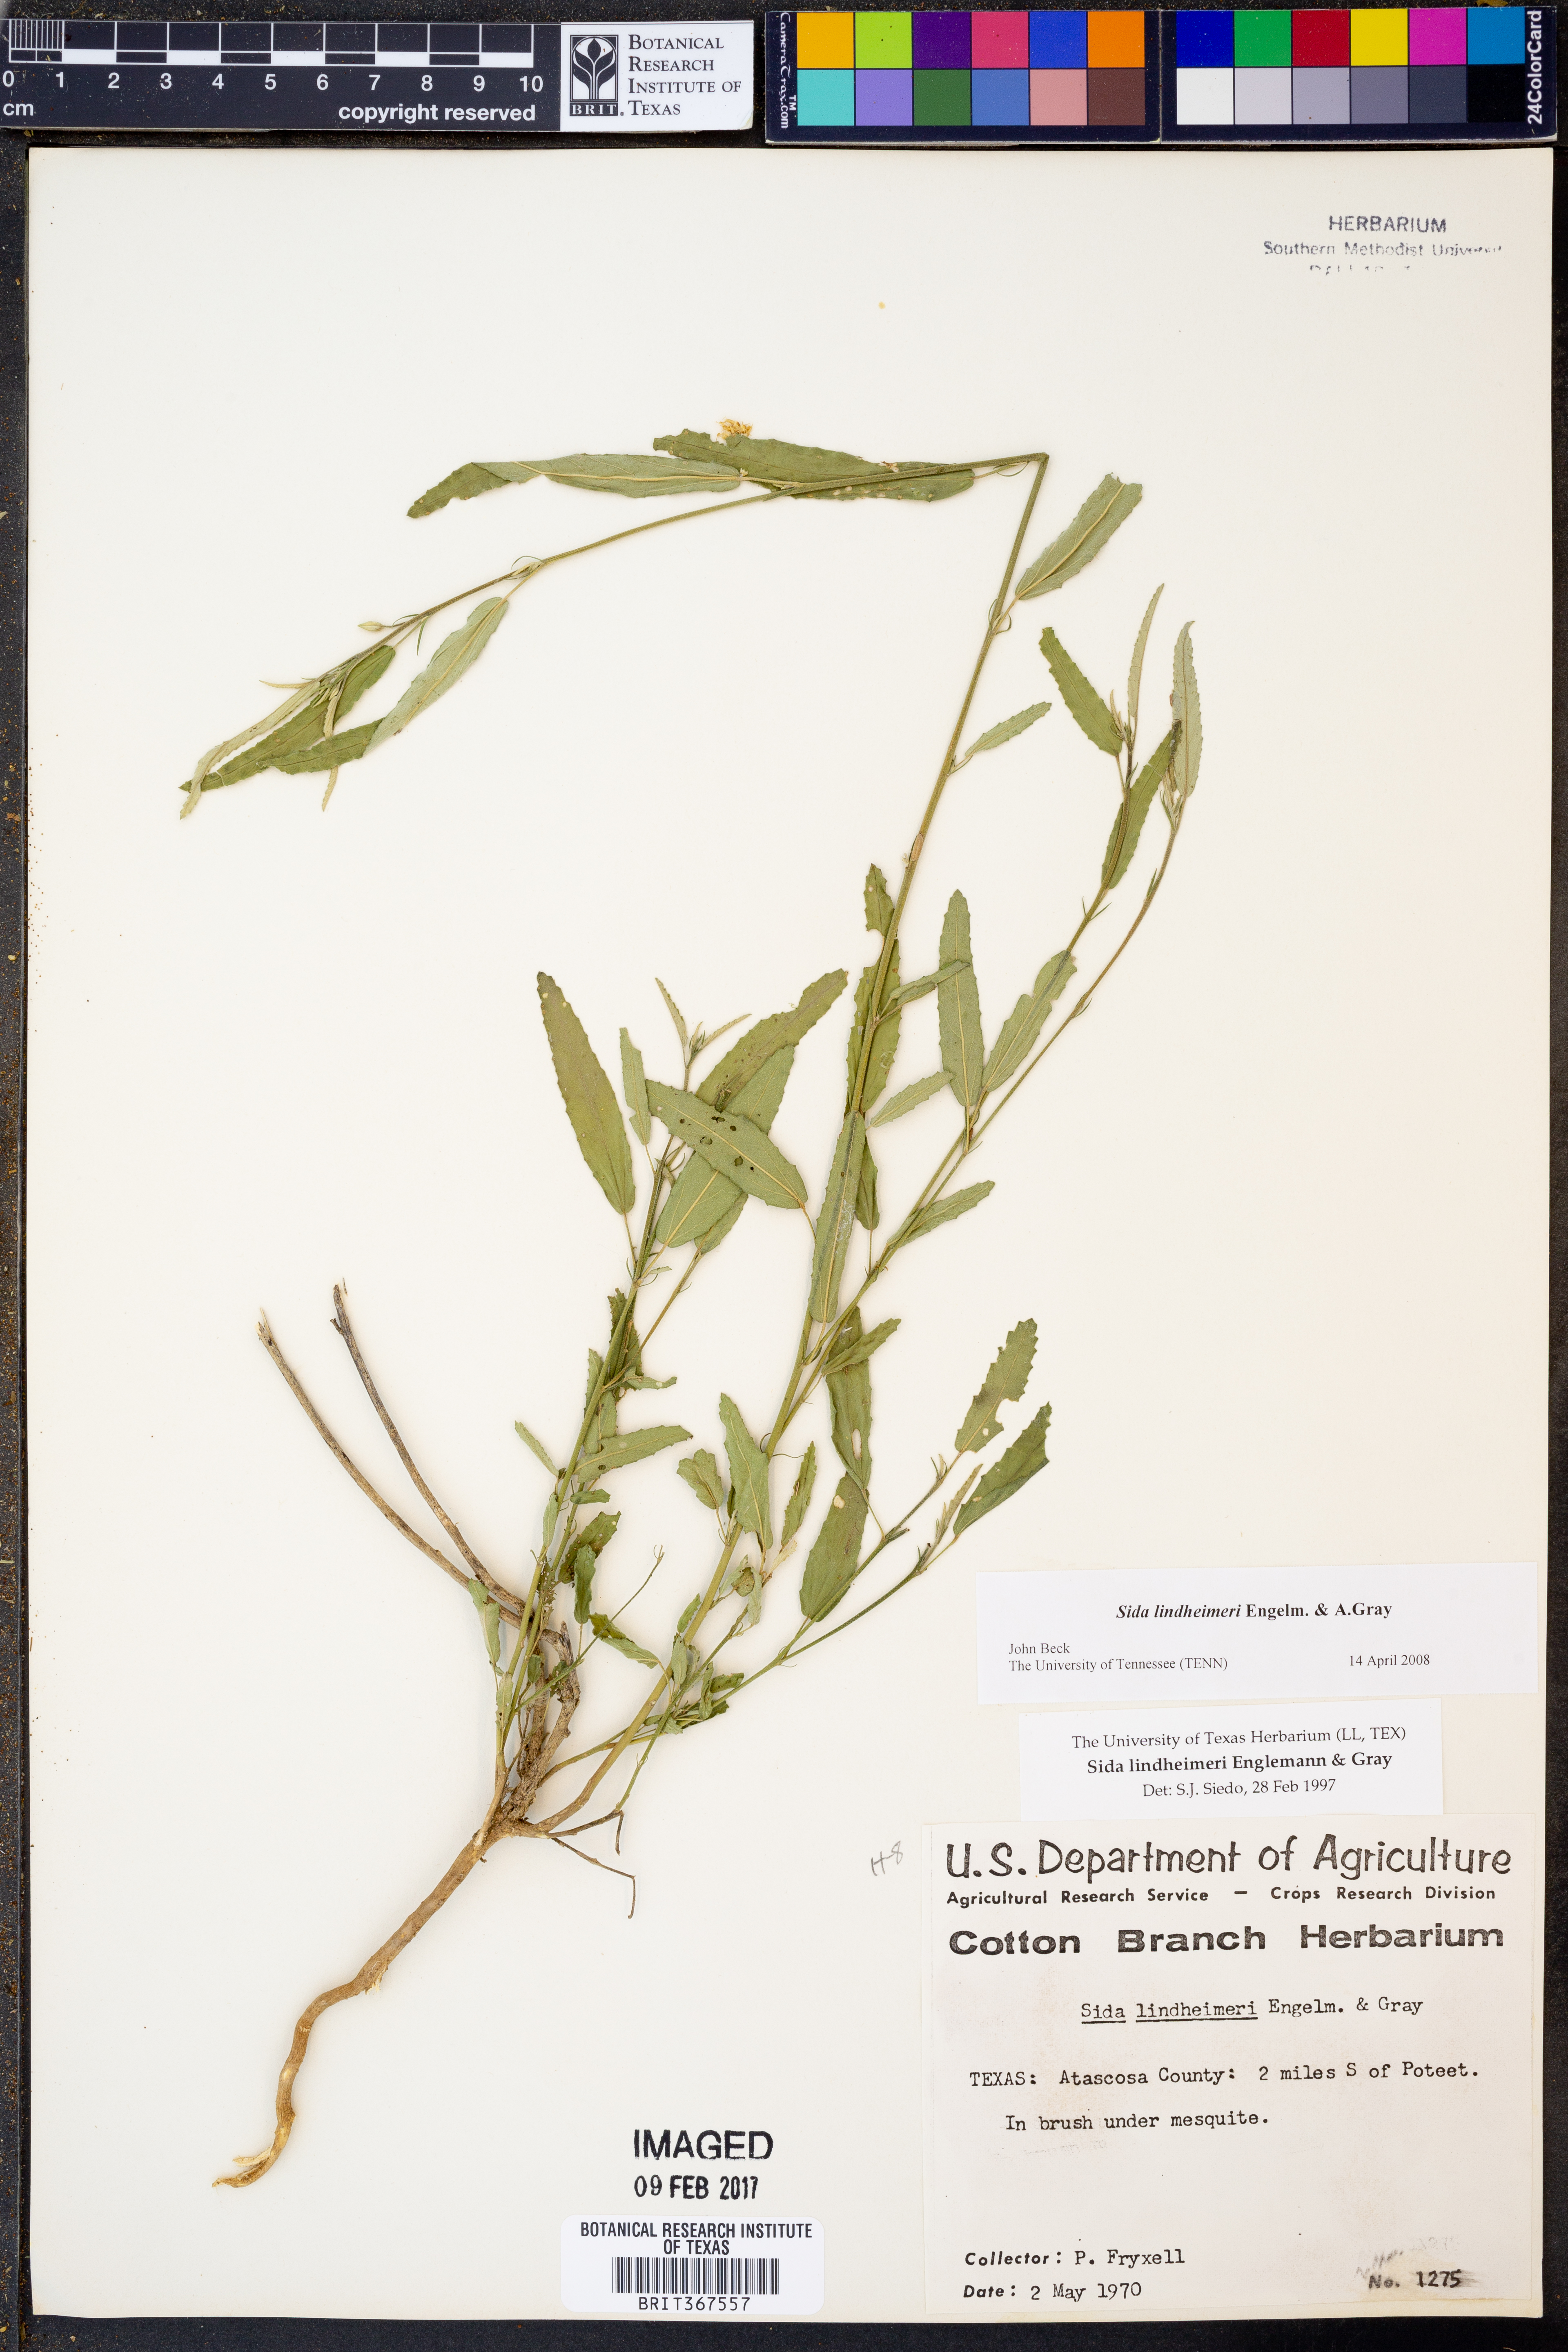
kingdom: Plantae
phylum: Tracheophyta
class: Magnoliopsida
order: Malvales
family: Malvaceae
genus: Sida
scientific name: Sida lindheimeri
